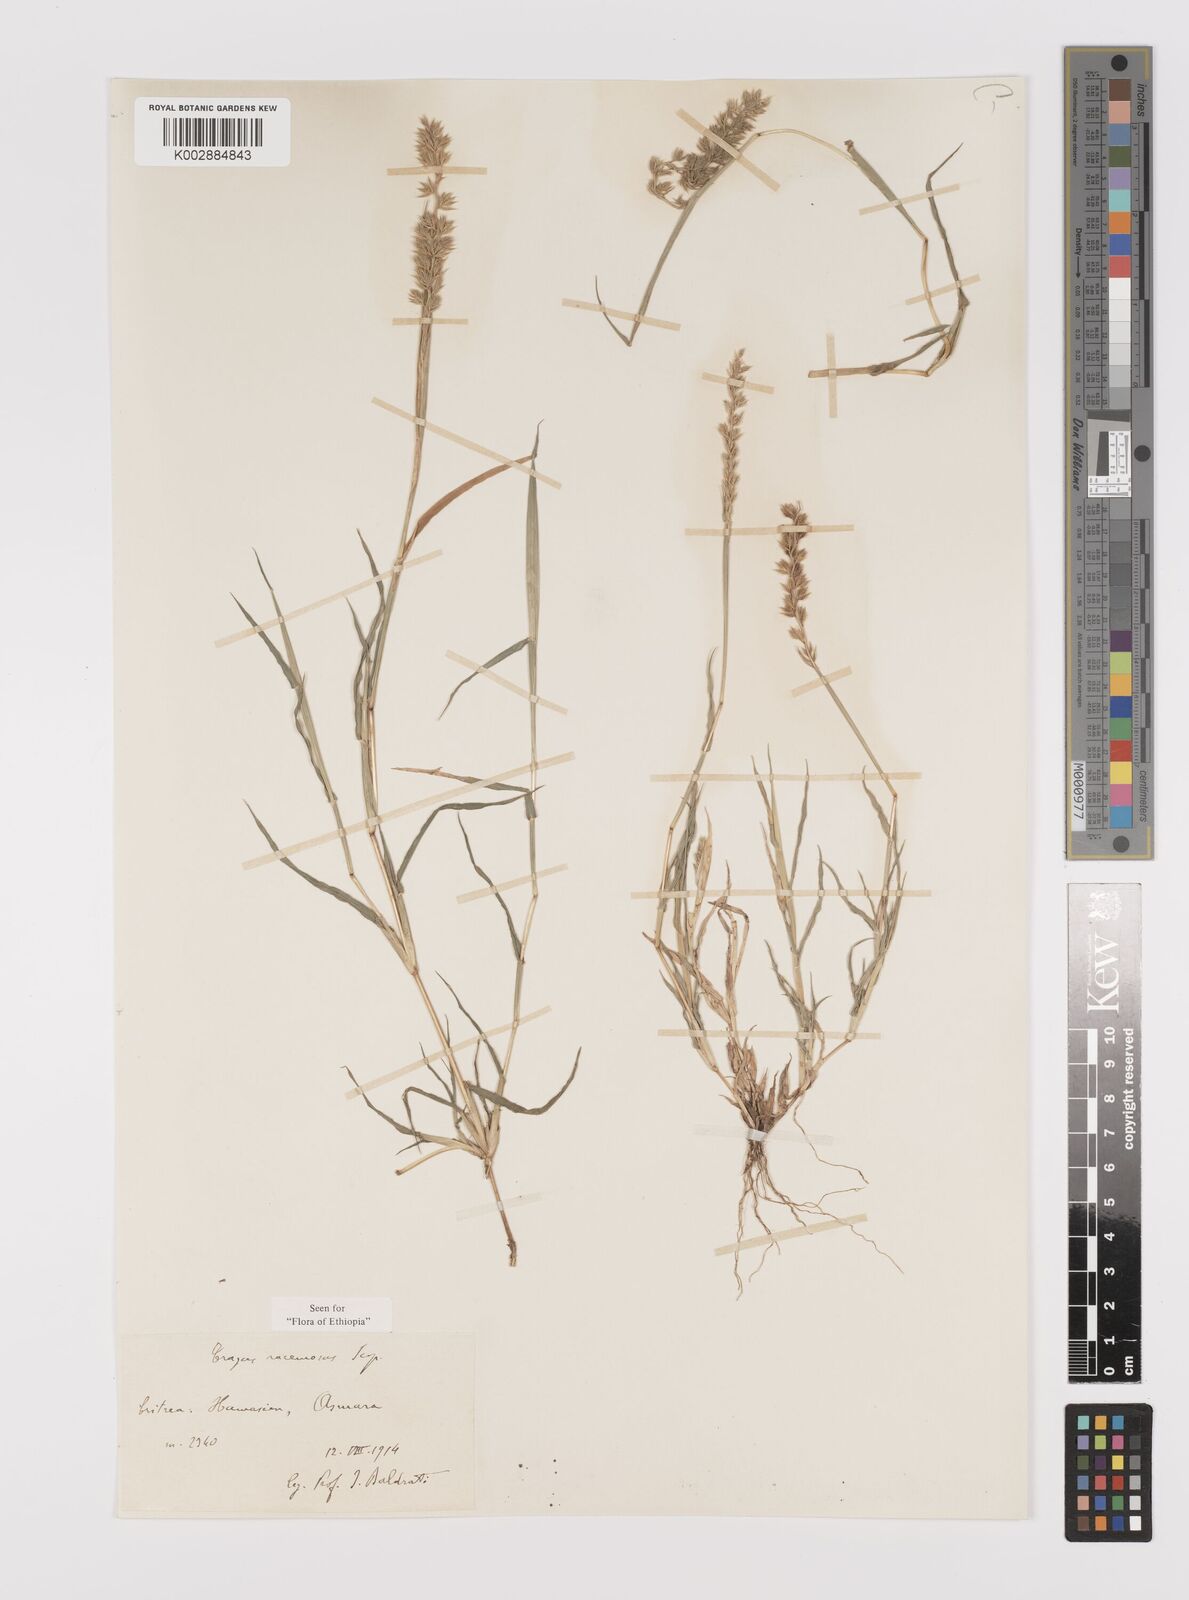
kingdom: Plantae
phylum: Tracheophyta
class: Liliopsida
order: Poales
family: Poaceae
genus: Tragus
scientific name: Tragus racemosus
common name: European bur-grass
